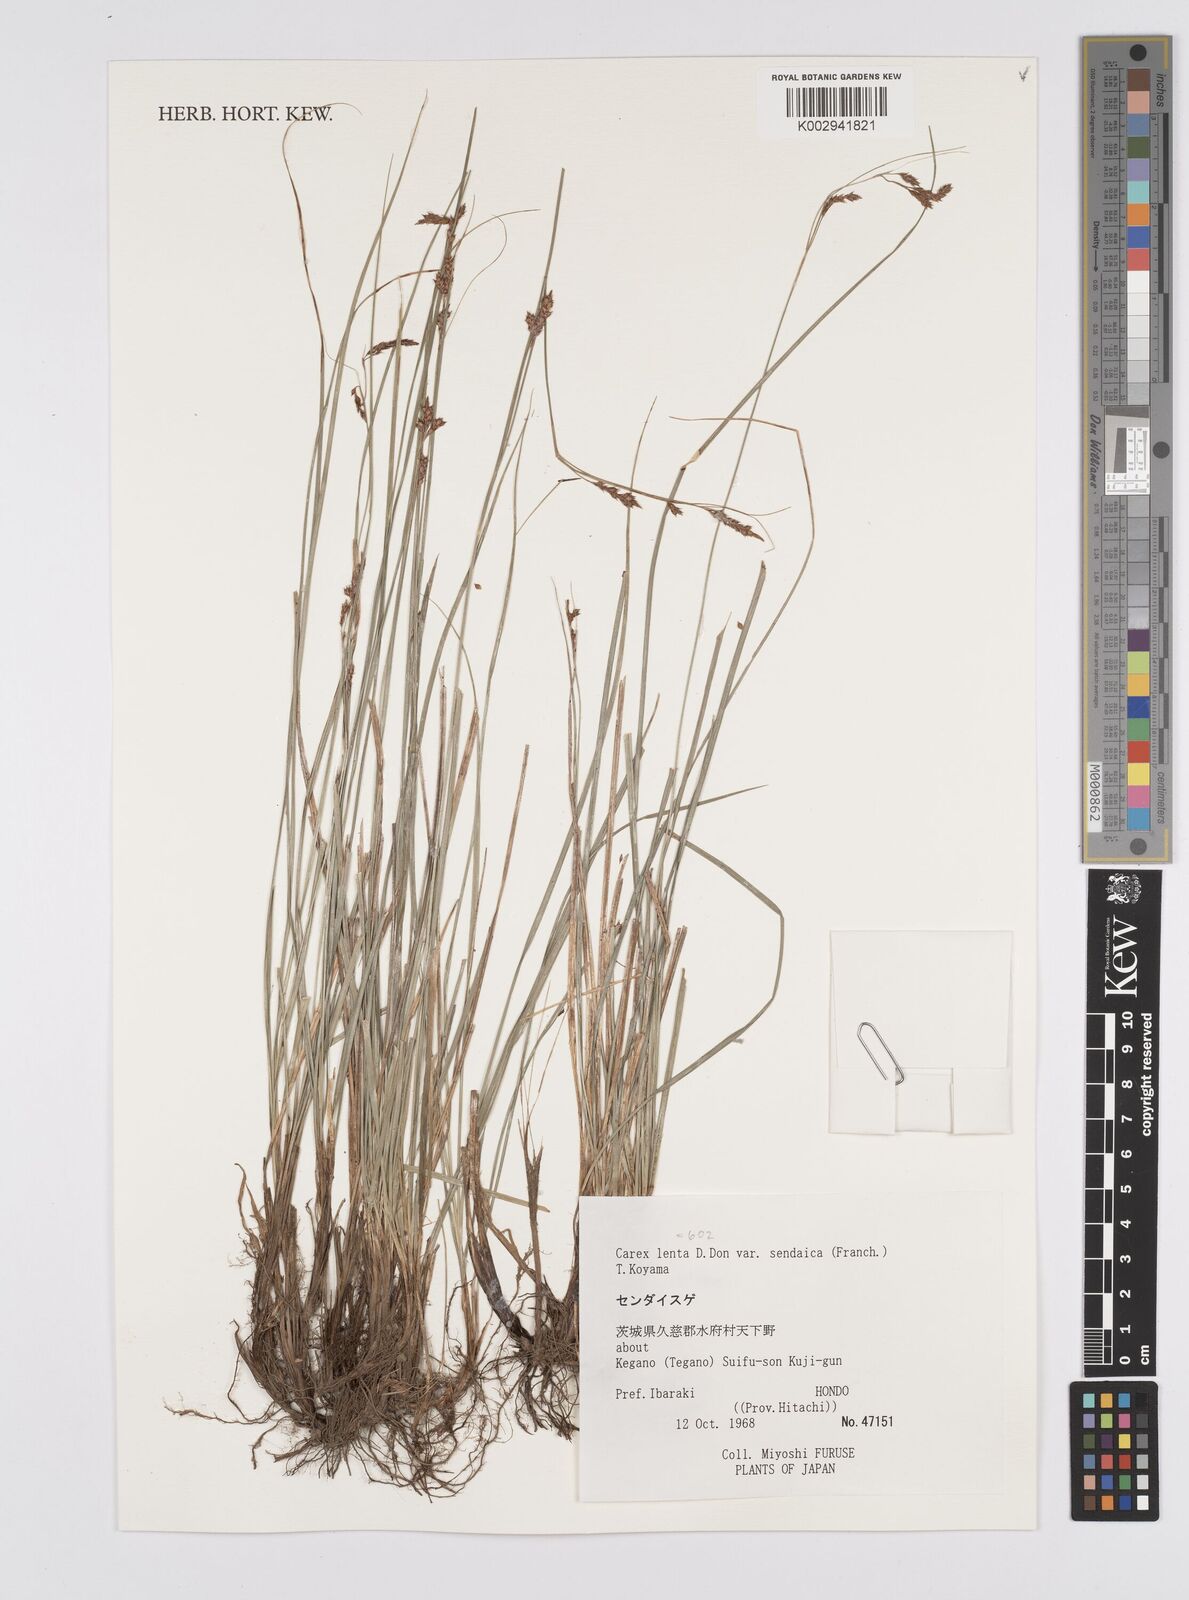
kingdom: Plantae
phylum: Tracheophyta
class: Liliopsida
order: Poales
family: Cyperaceae
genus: Carex
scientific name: Carex brunnea
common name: Greater brown sedge
